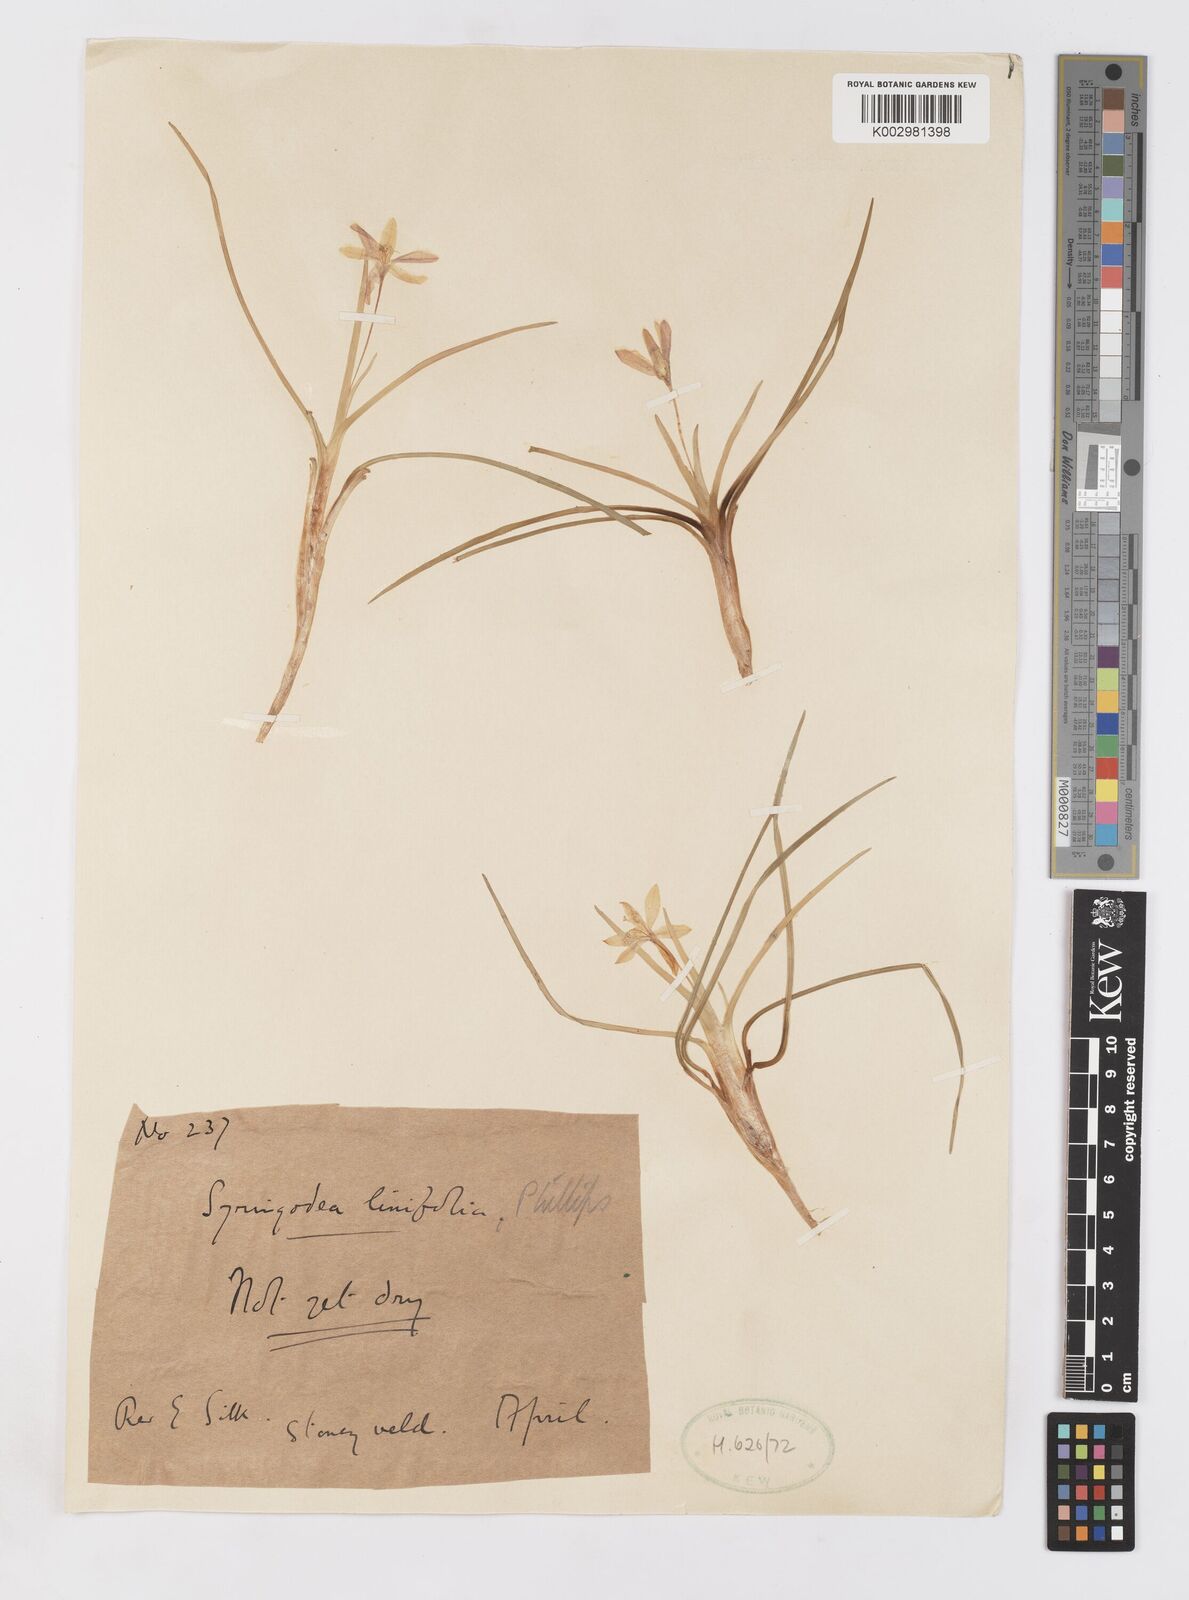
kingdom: Plantae
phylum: Tracheophyta
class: Liliopsida
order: Asparagales
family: Iridaceae
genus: Duthiastrum
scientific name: Duthiastrum linifolium
